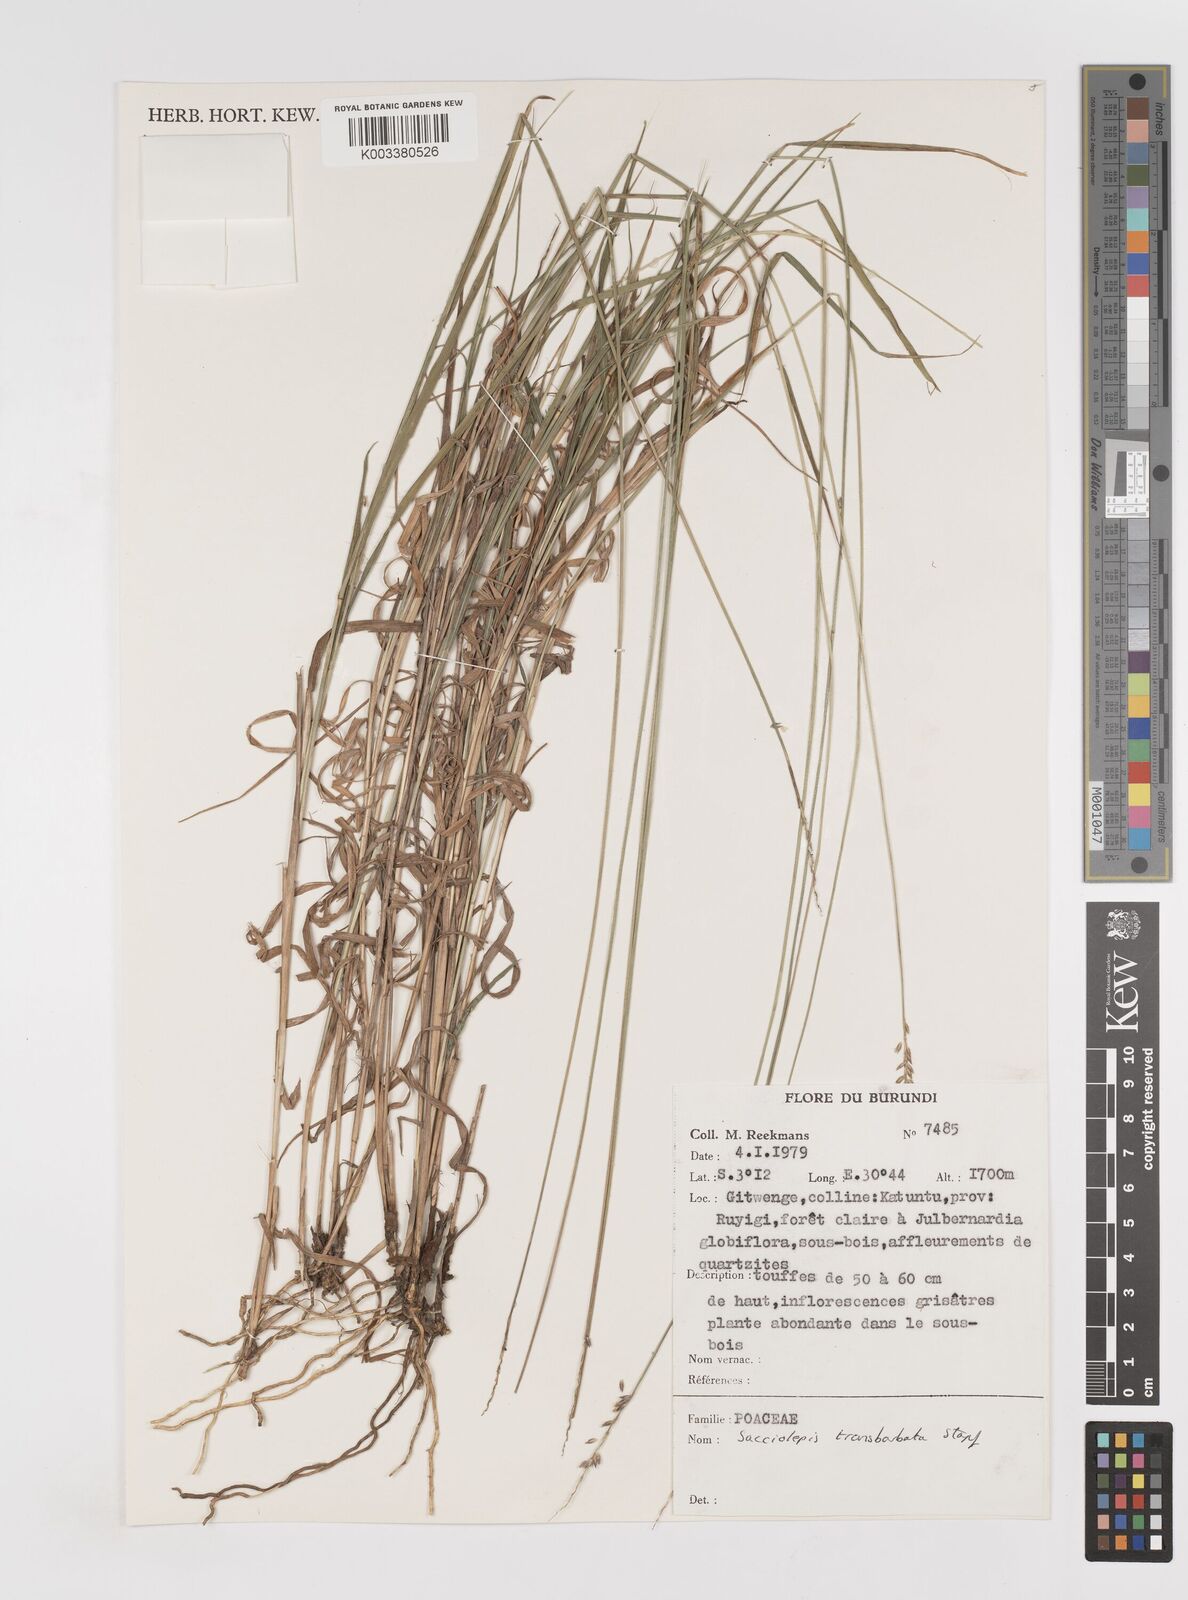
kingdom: Plantae
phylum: Tracheophyta
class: Liliopsida
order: Poales
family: Poaceae
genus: Sacciolepis
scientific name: Sacciolepis transbarbata
